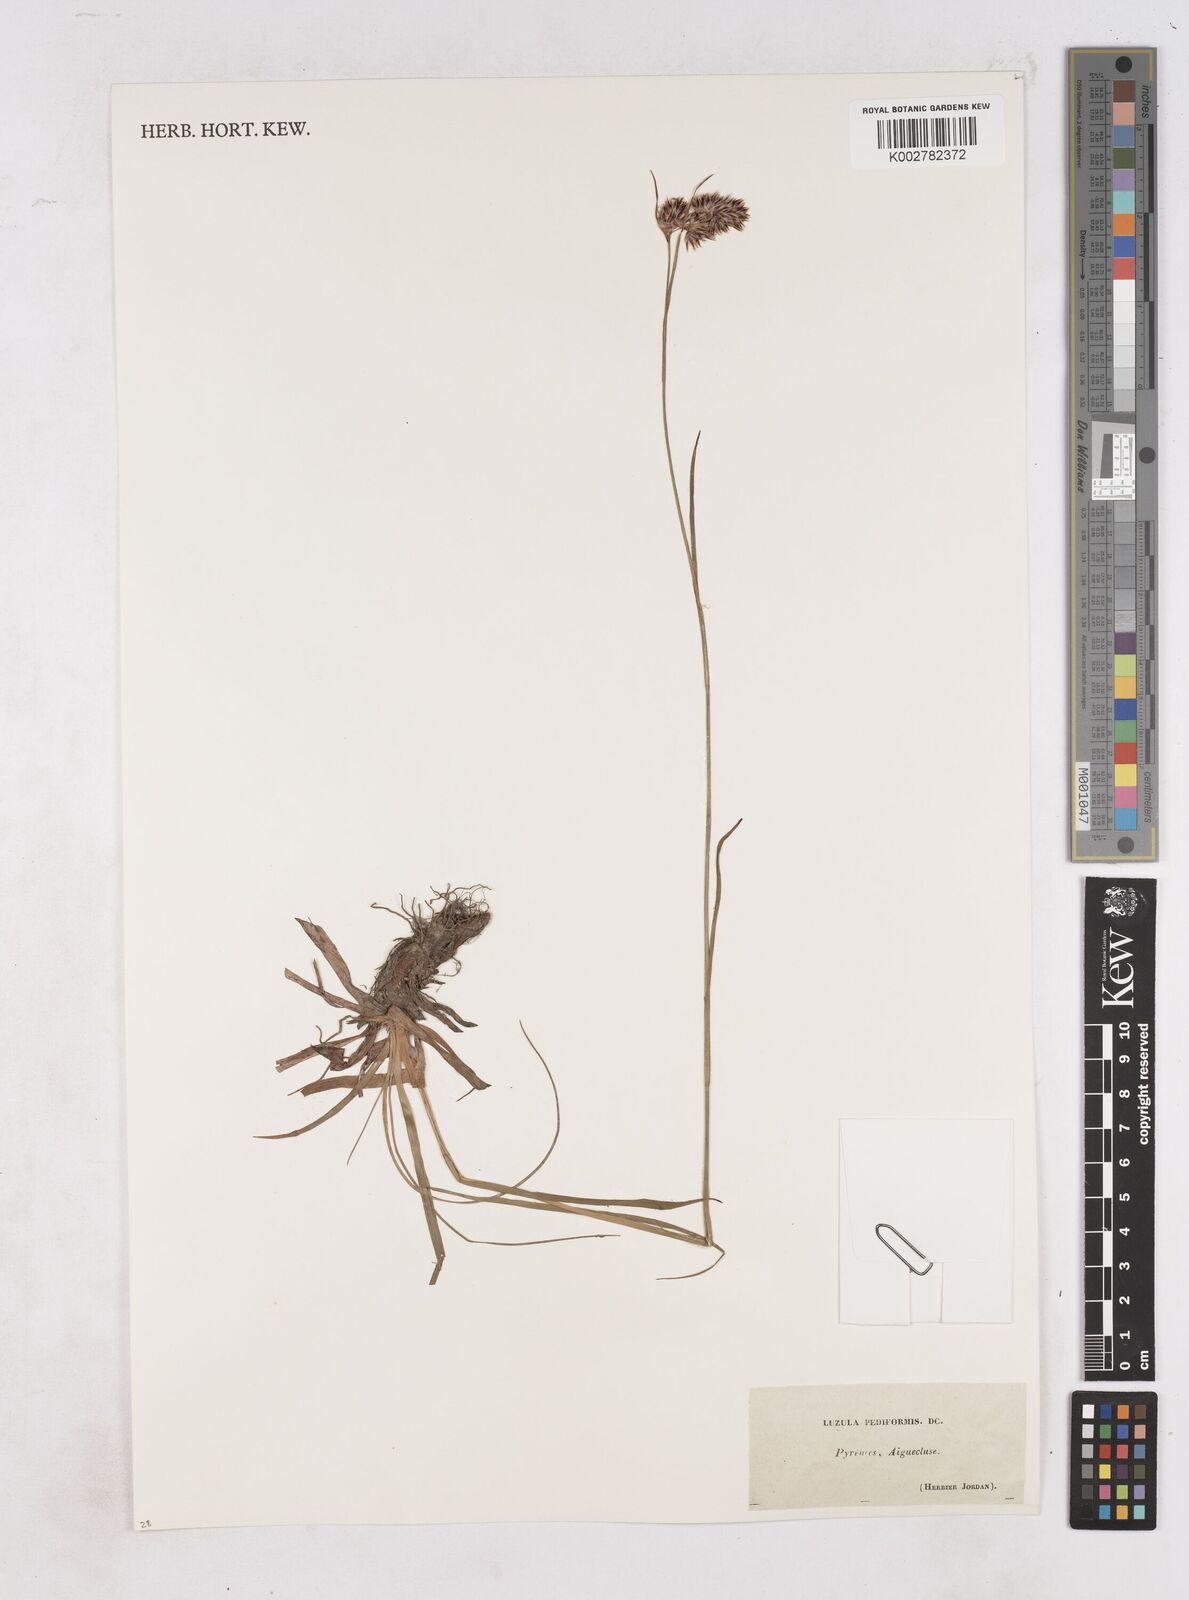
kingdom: Plantae
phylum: Tracheophyta
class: Liliopsida
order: Poales
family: Juncaceae
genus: Luzula
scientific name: Luzula pediformis
